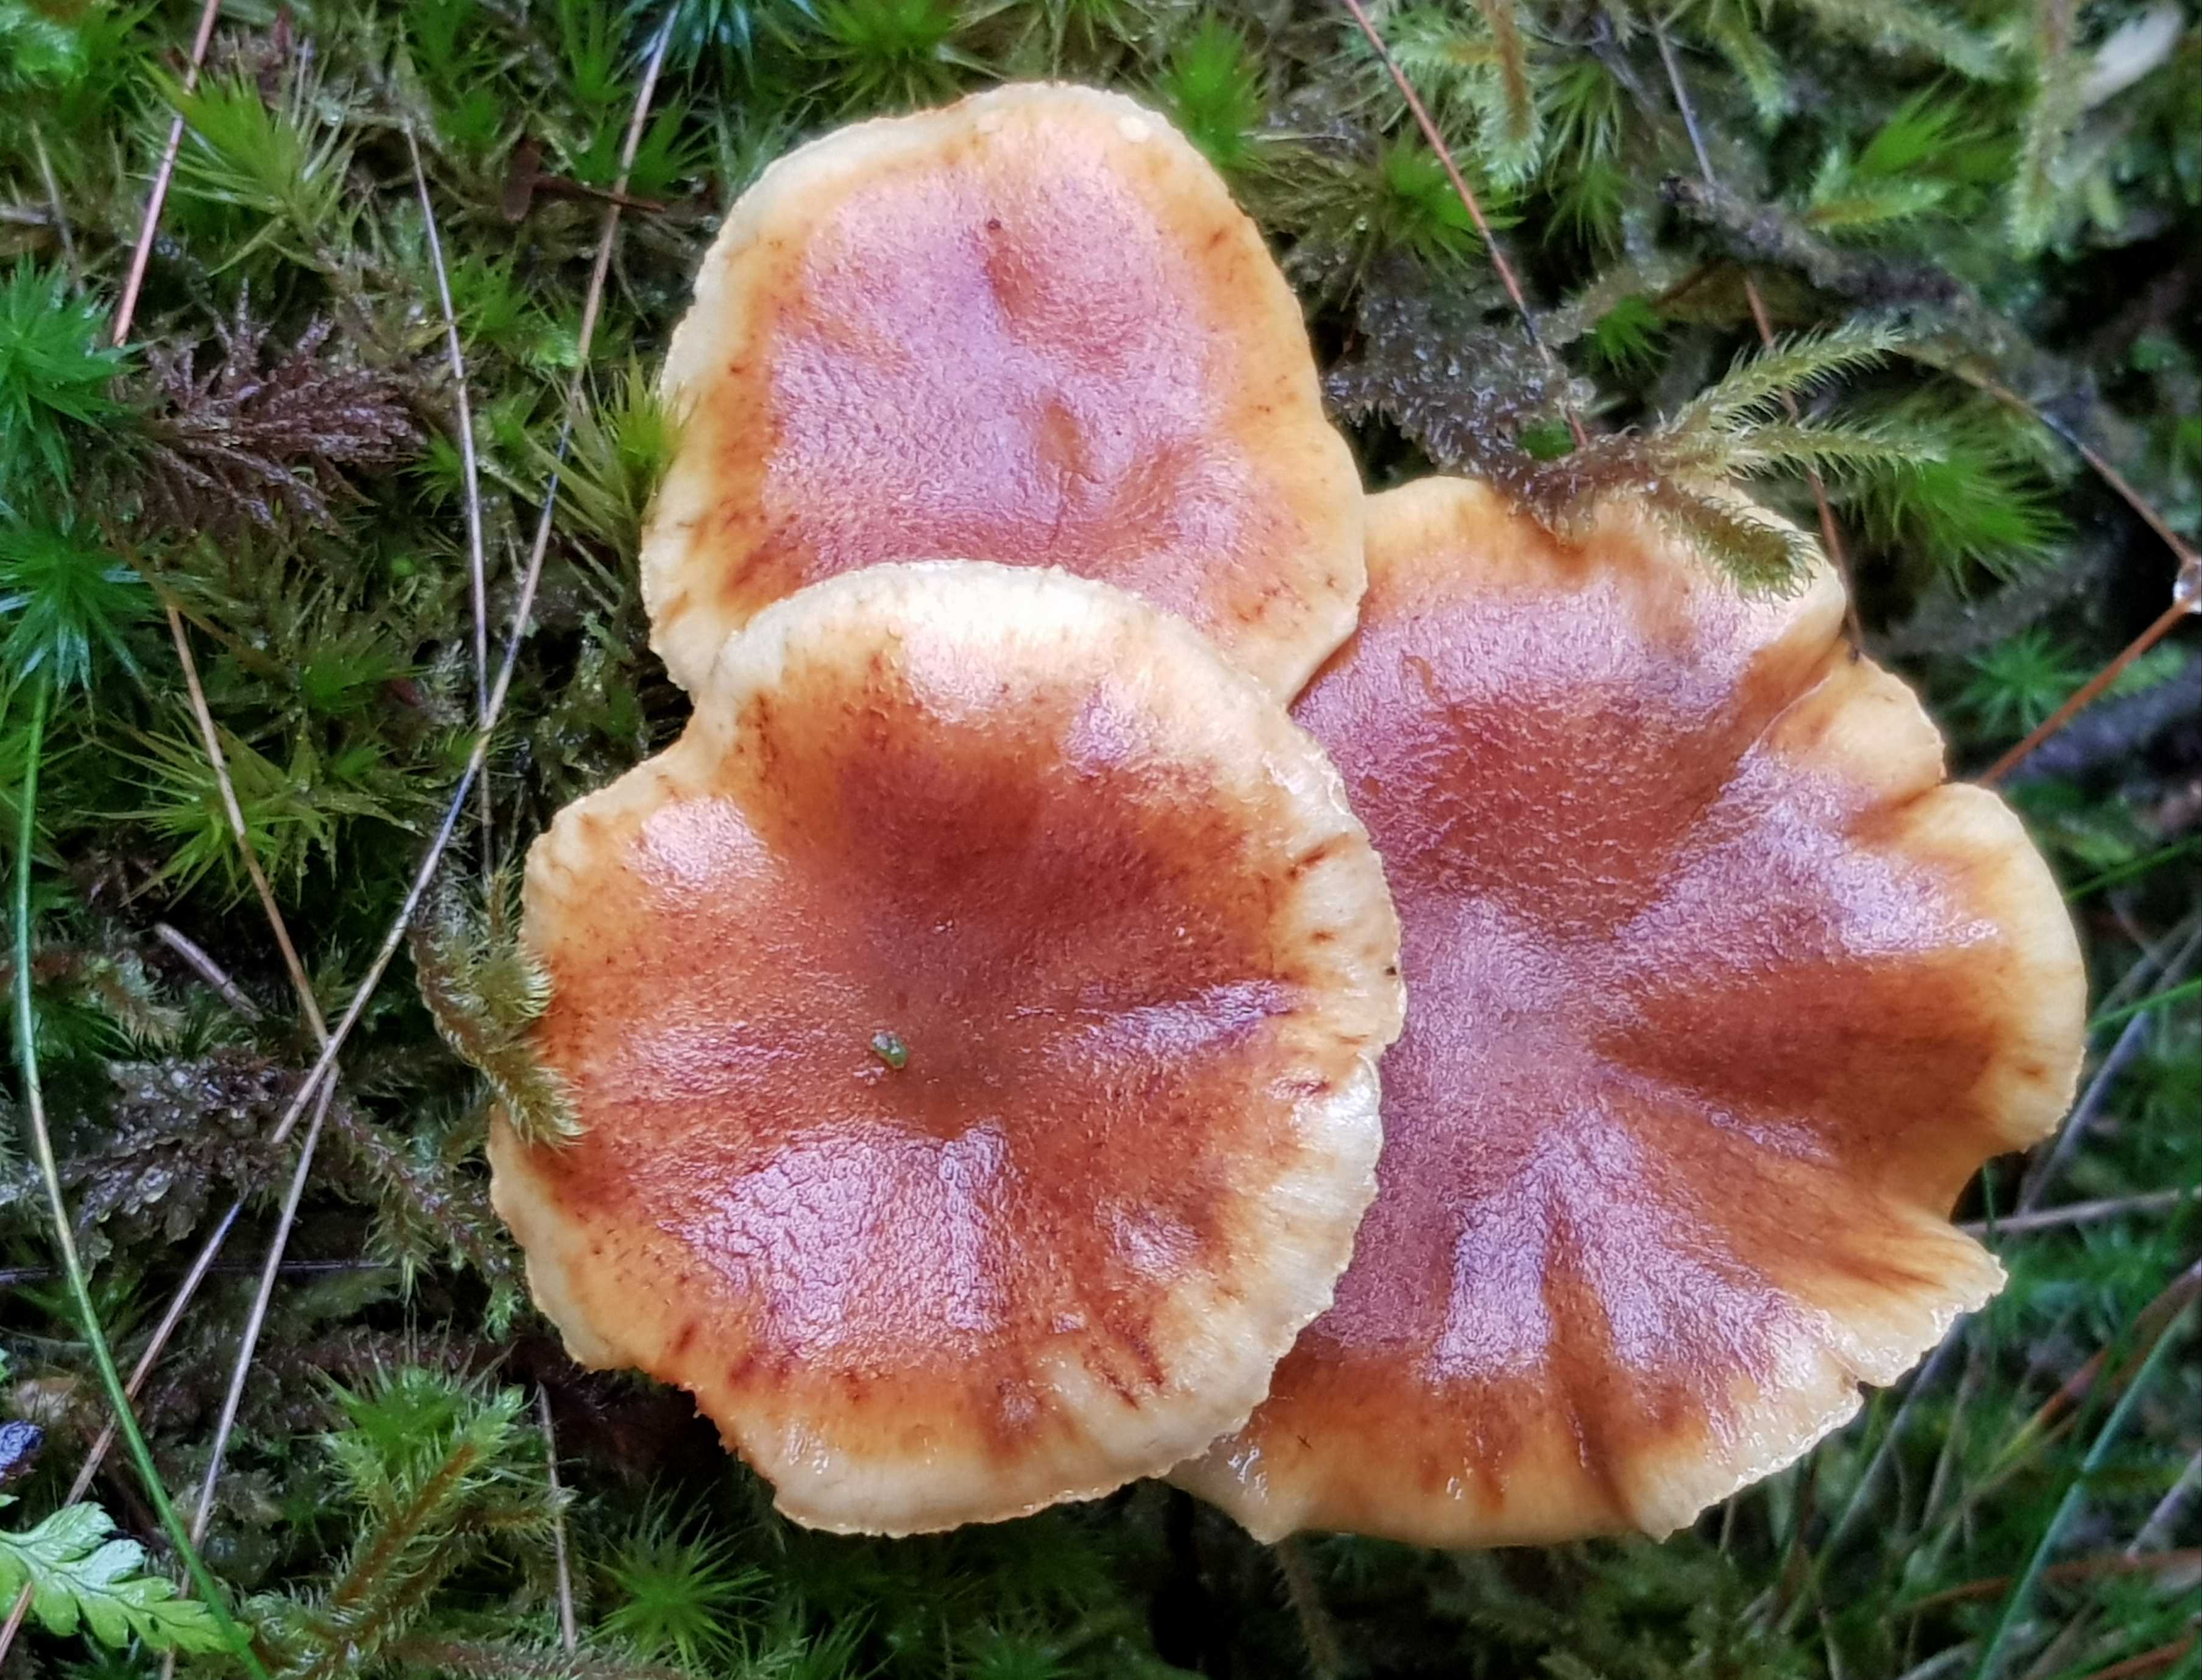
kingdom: Fungi
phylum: Basidiomycota
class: Agaricomycetes
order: Agaricales
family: Hymenogastraceae
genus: Gymnopilus
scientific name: Gymnopilus penetrans
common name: plettet flammehat
